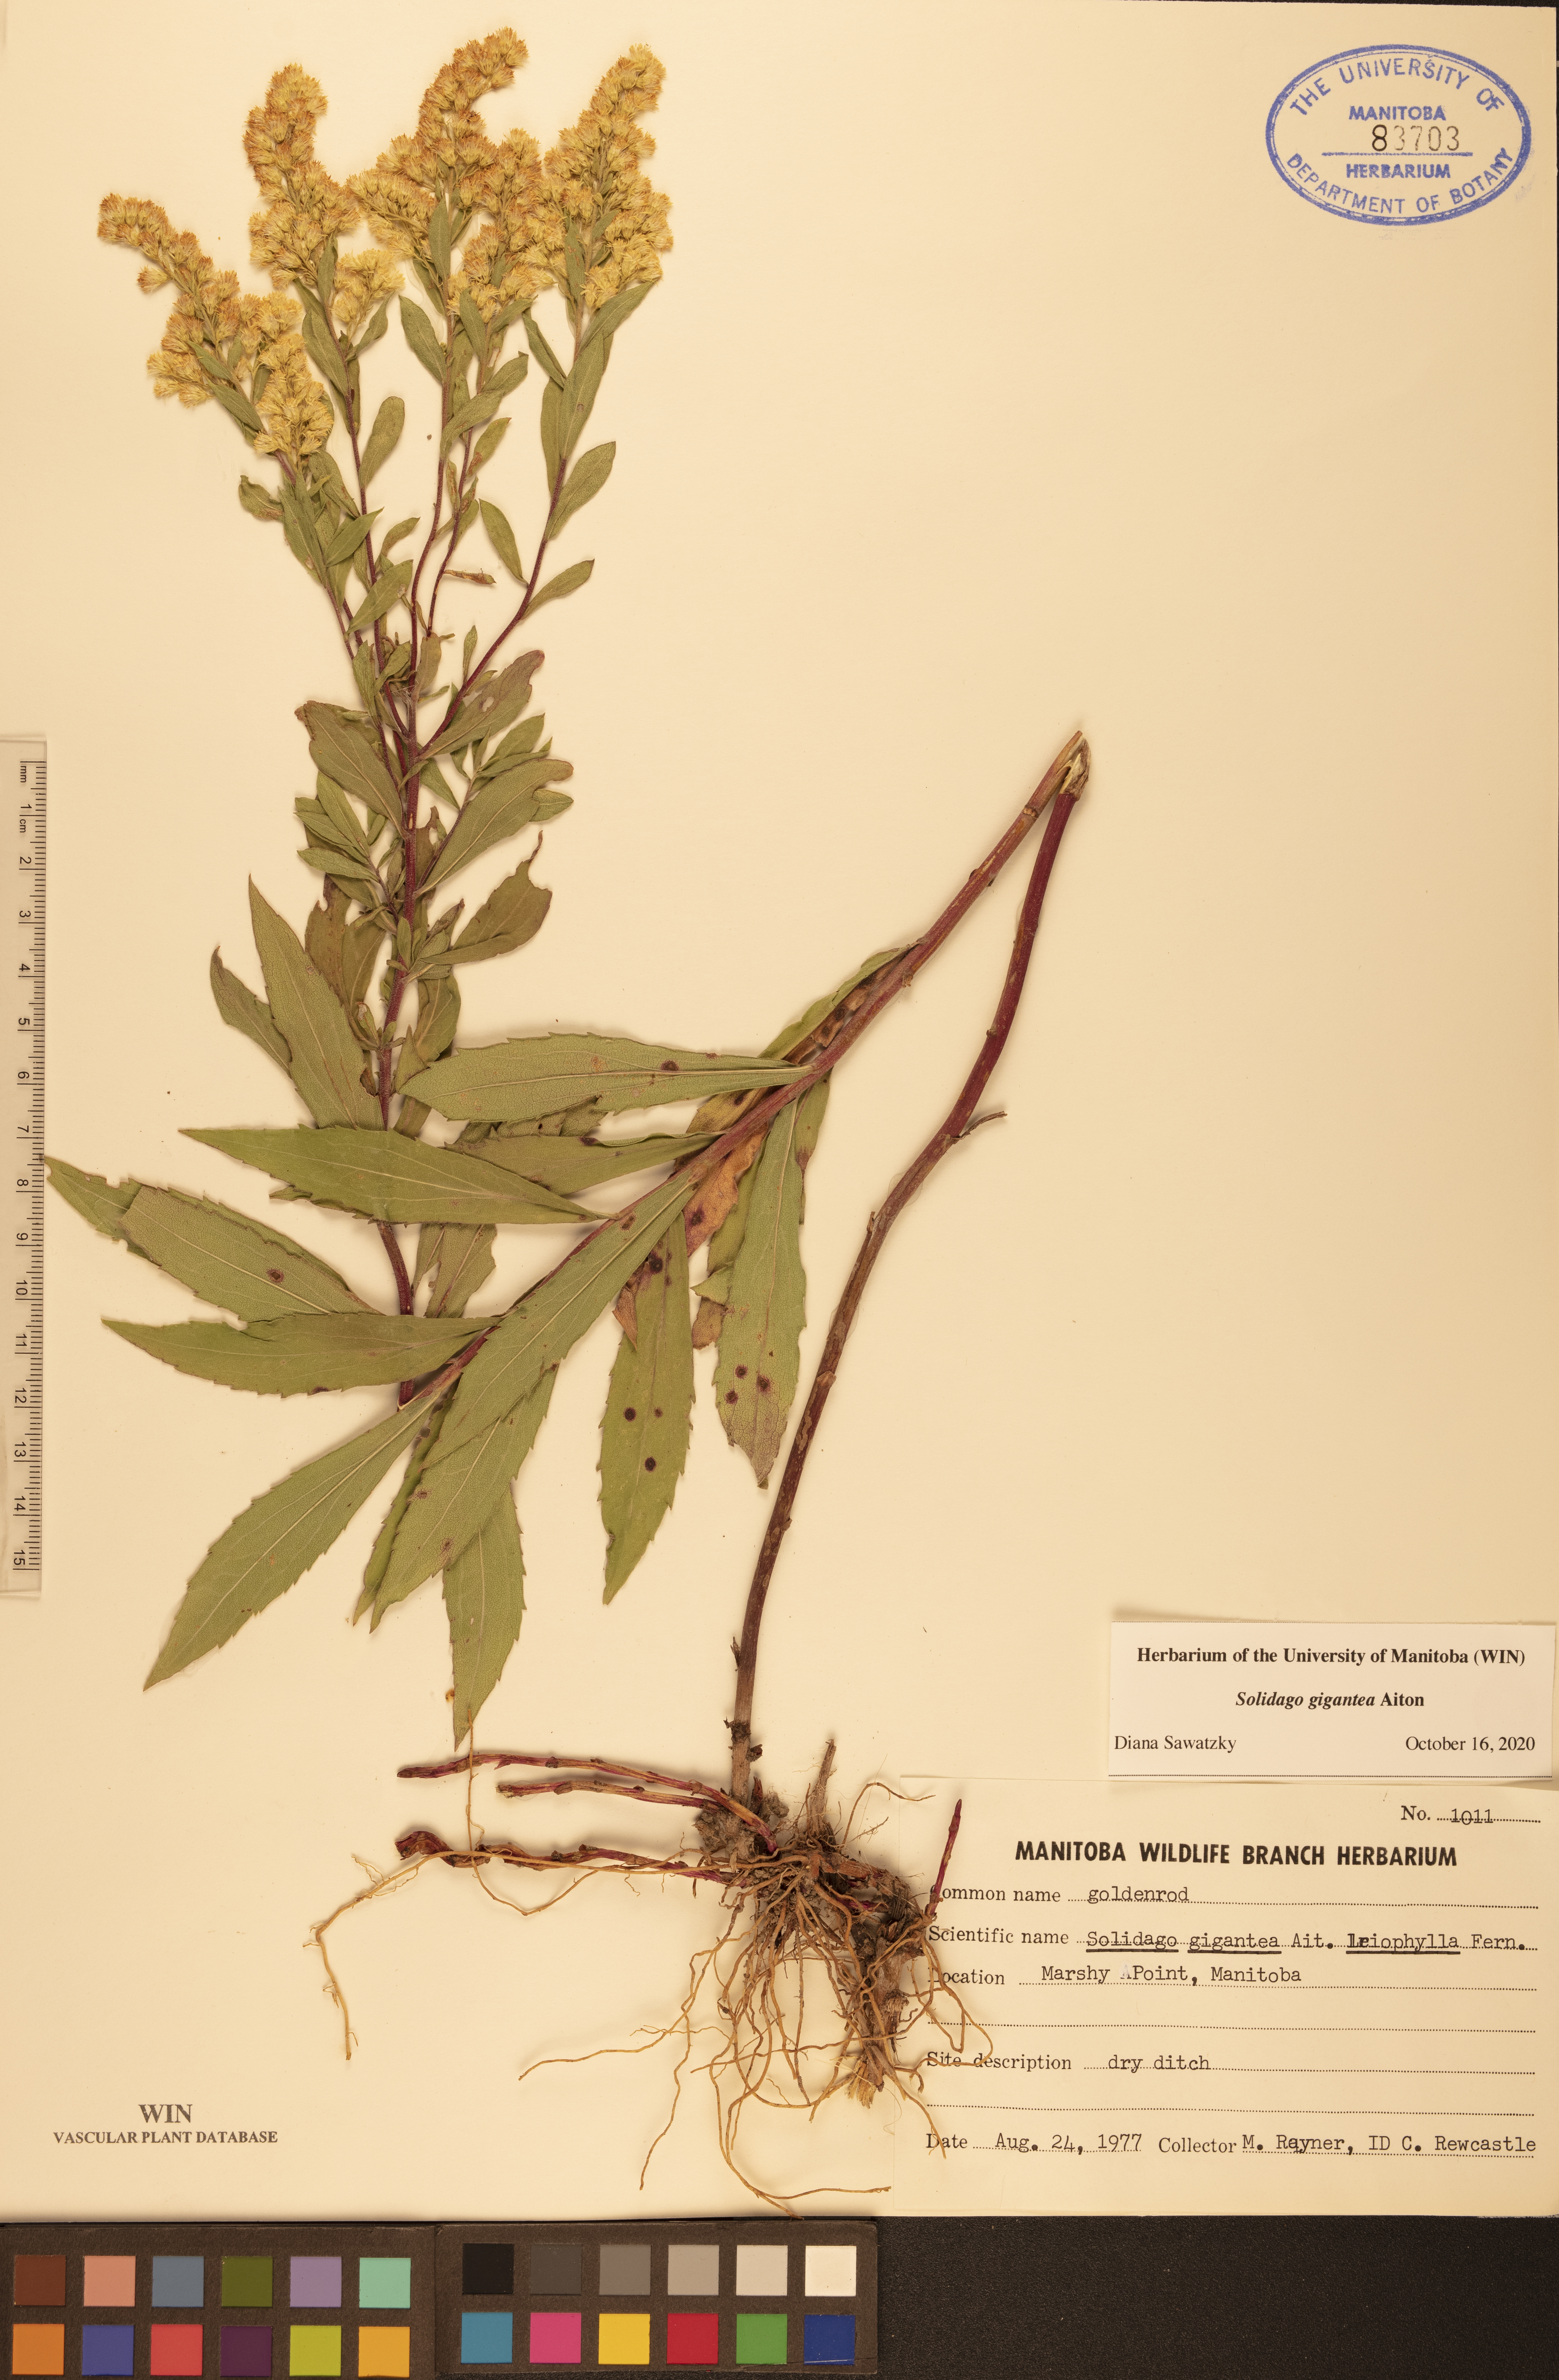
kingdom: Plantae
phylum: Tracheophyta
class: Magnoliopsida
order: Asterales
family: Asteraceae
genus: Solidago
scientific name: Solidago gigantea
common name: Giant goldenrod
